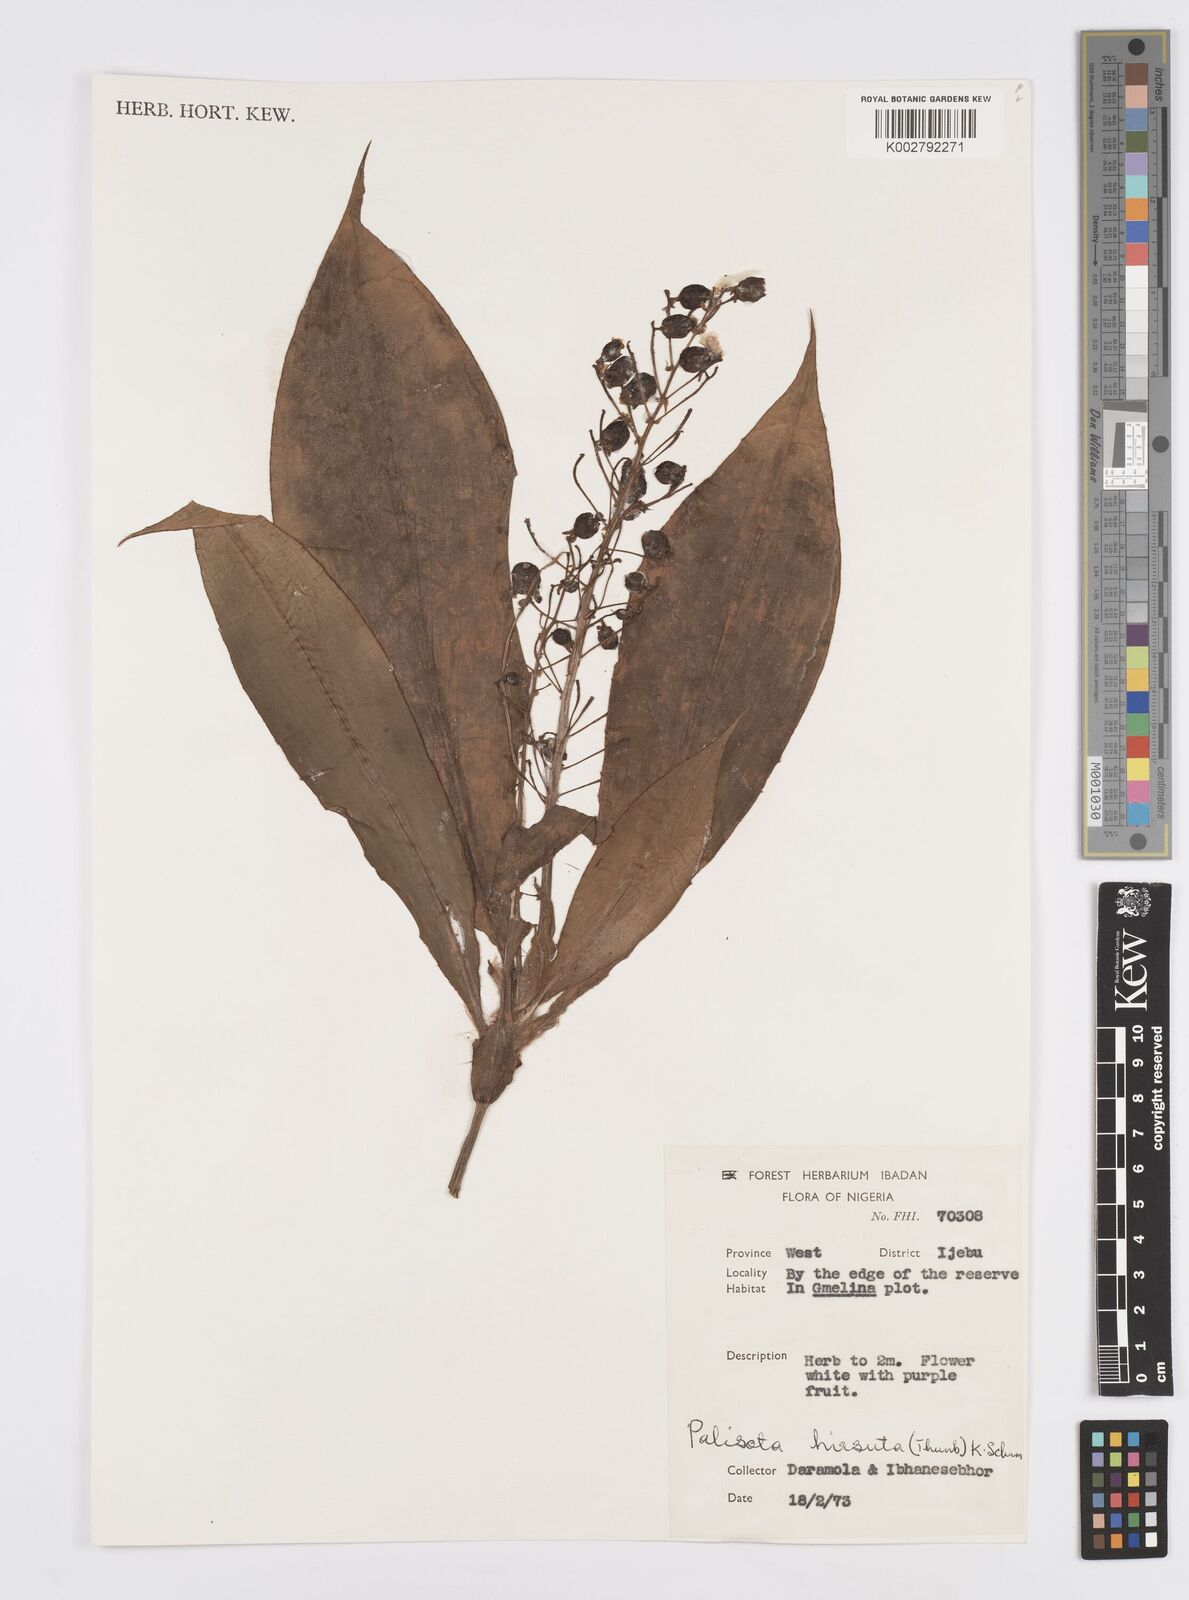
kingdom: Plantae
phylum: Tracheophyta
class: Liliopsida
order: Commelinales
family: Commelinaceae
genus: Palisota
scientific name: Palisota hirsuta
